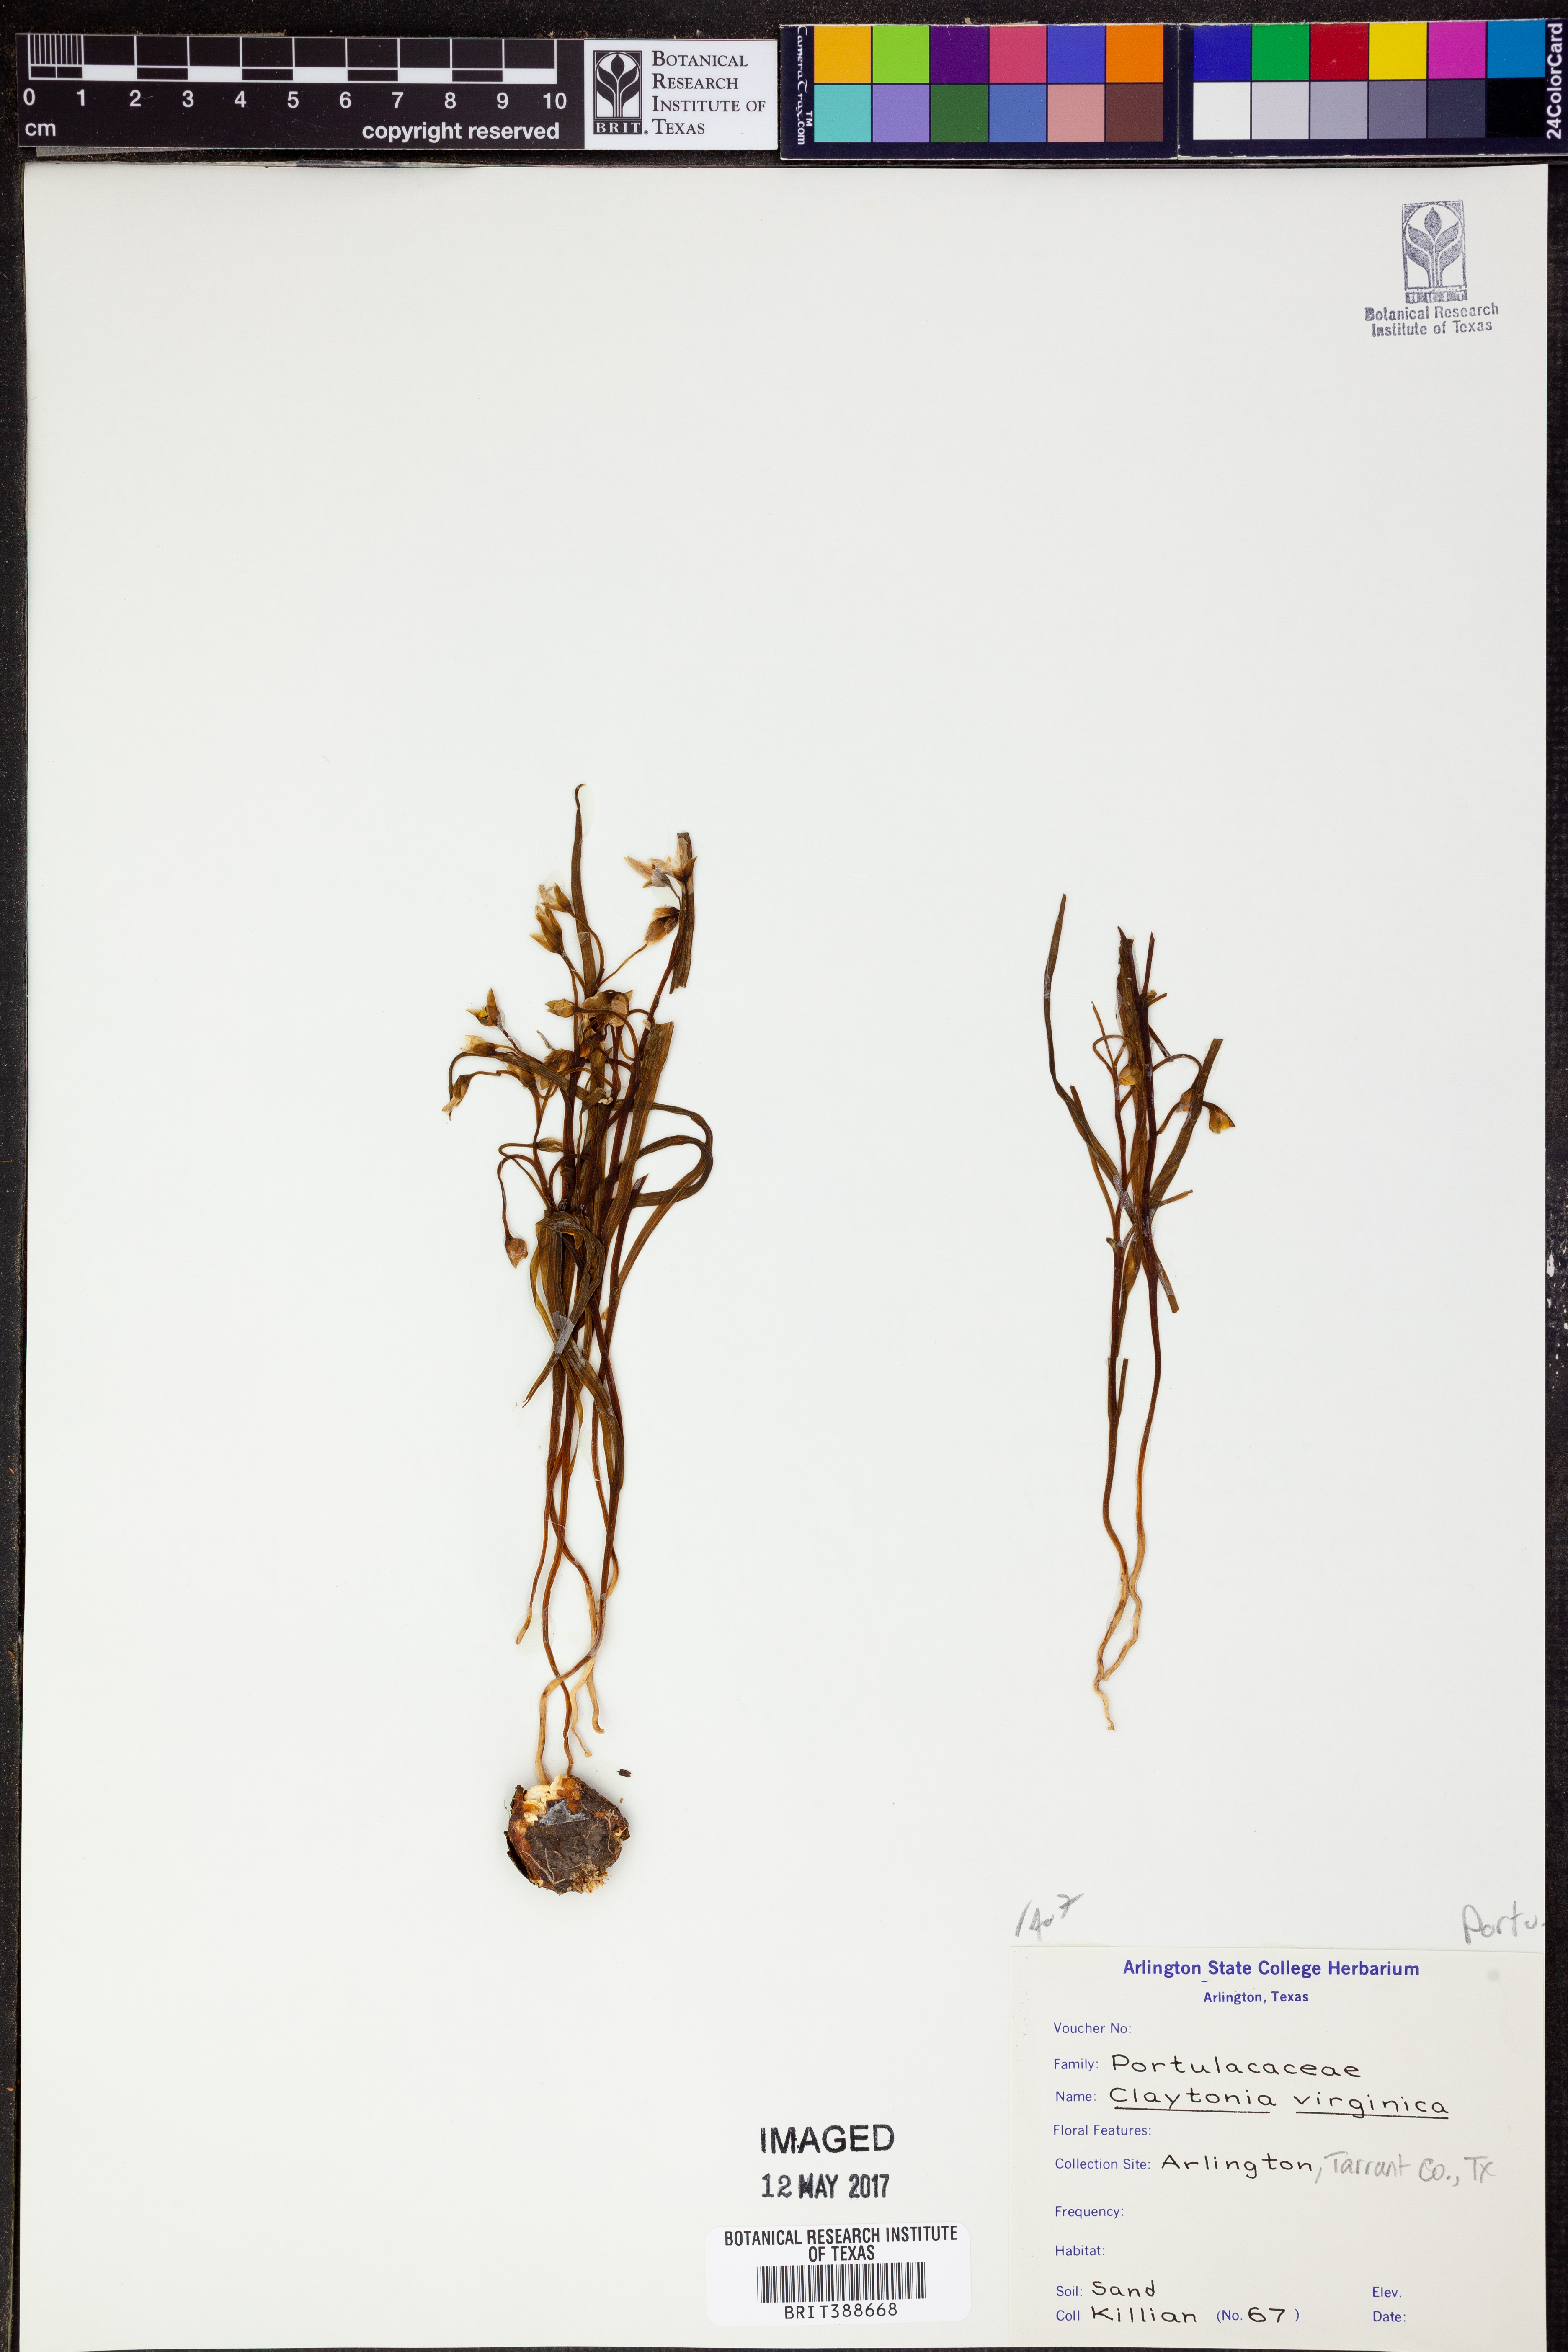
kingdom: Plantae
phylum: Tracheophyta
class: Magnoliopsida
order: Caryophyllales
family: Montiaceae
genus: Claytonia
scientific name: Claytonia virginica
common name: Virginia springbeauty
